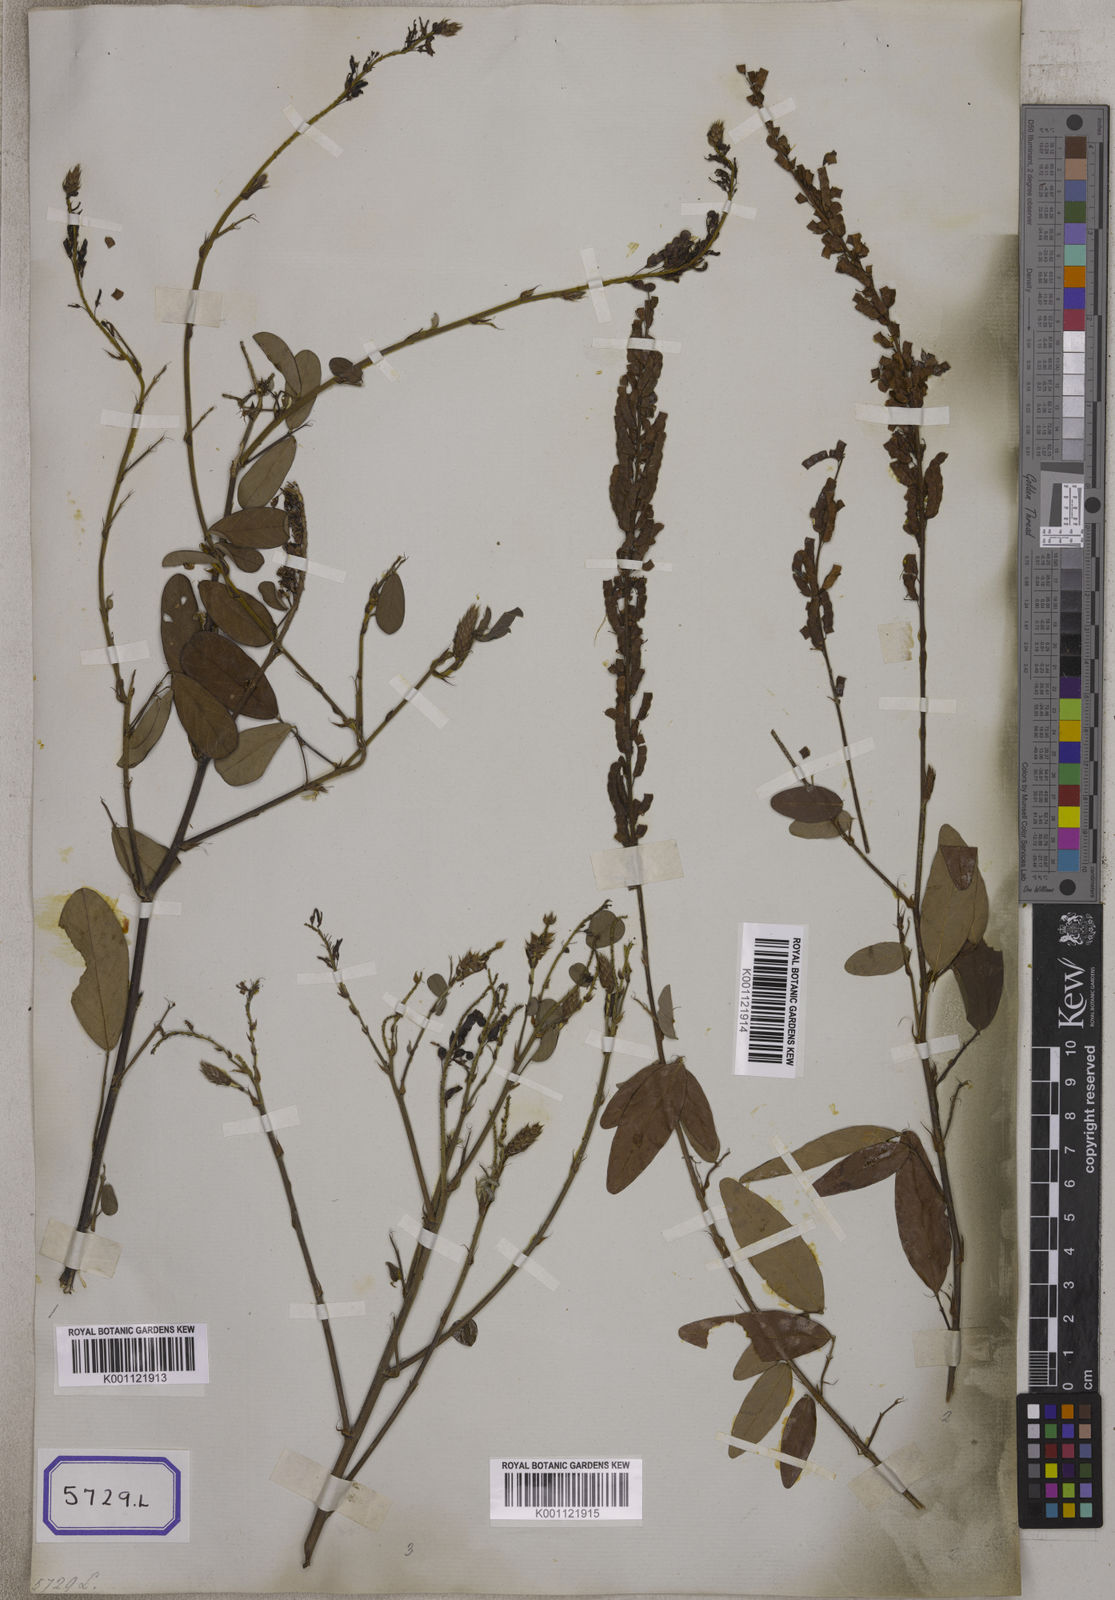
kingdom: Plantae
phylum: Tracheophyta
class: Magnoliopsida
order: Fabales
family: Fabaceae
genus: Desmodium
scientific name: Desmodium
